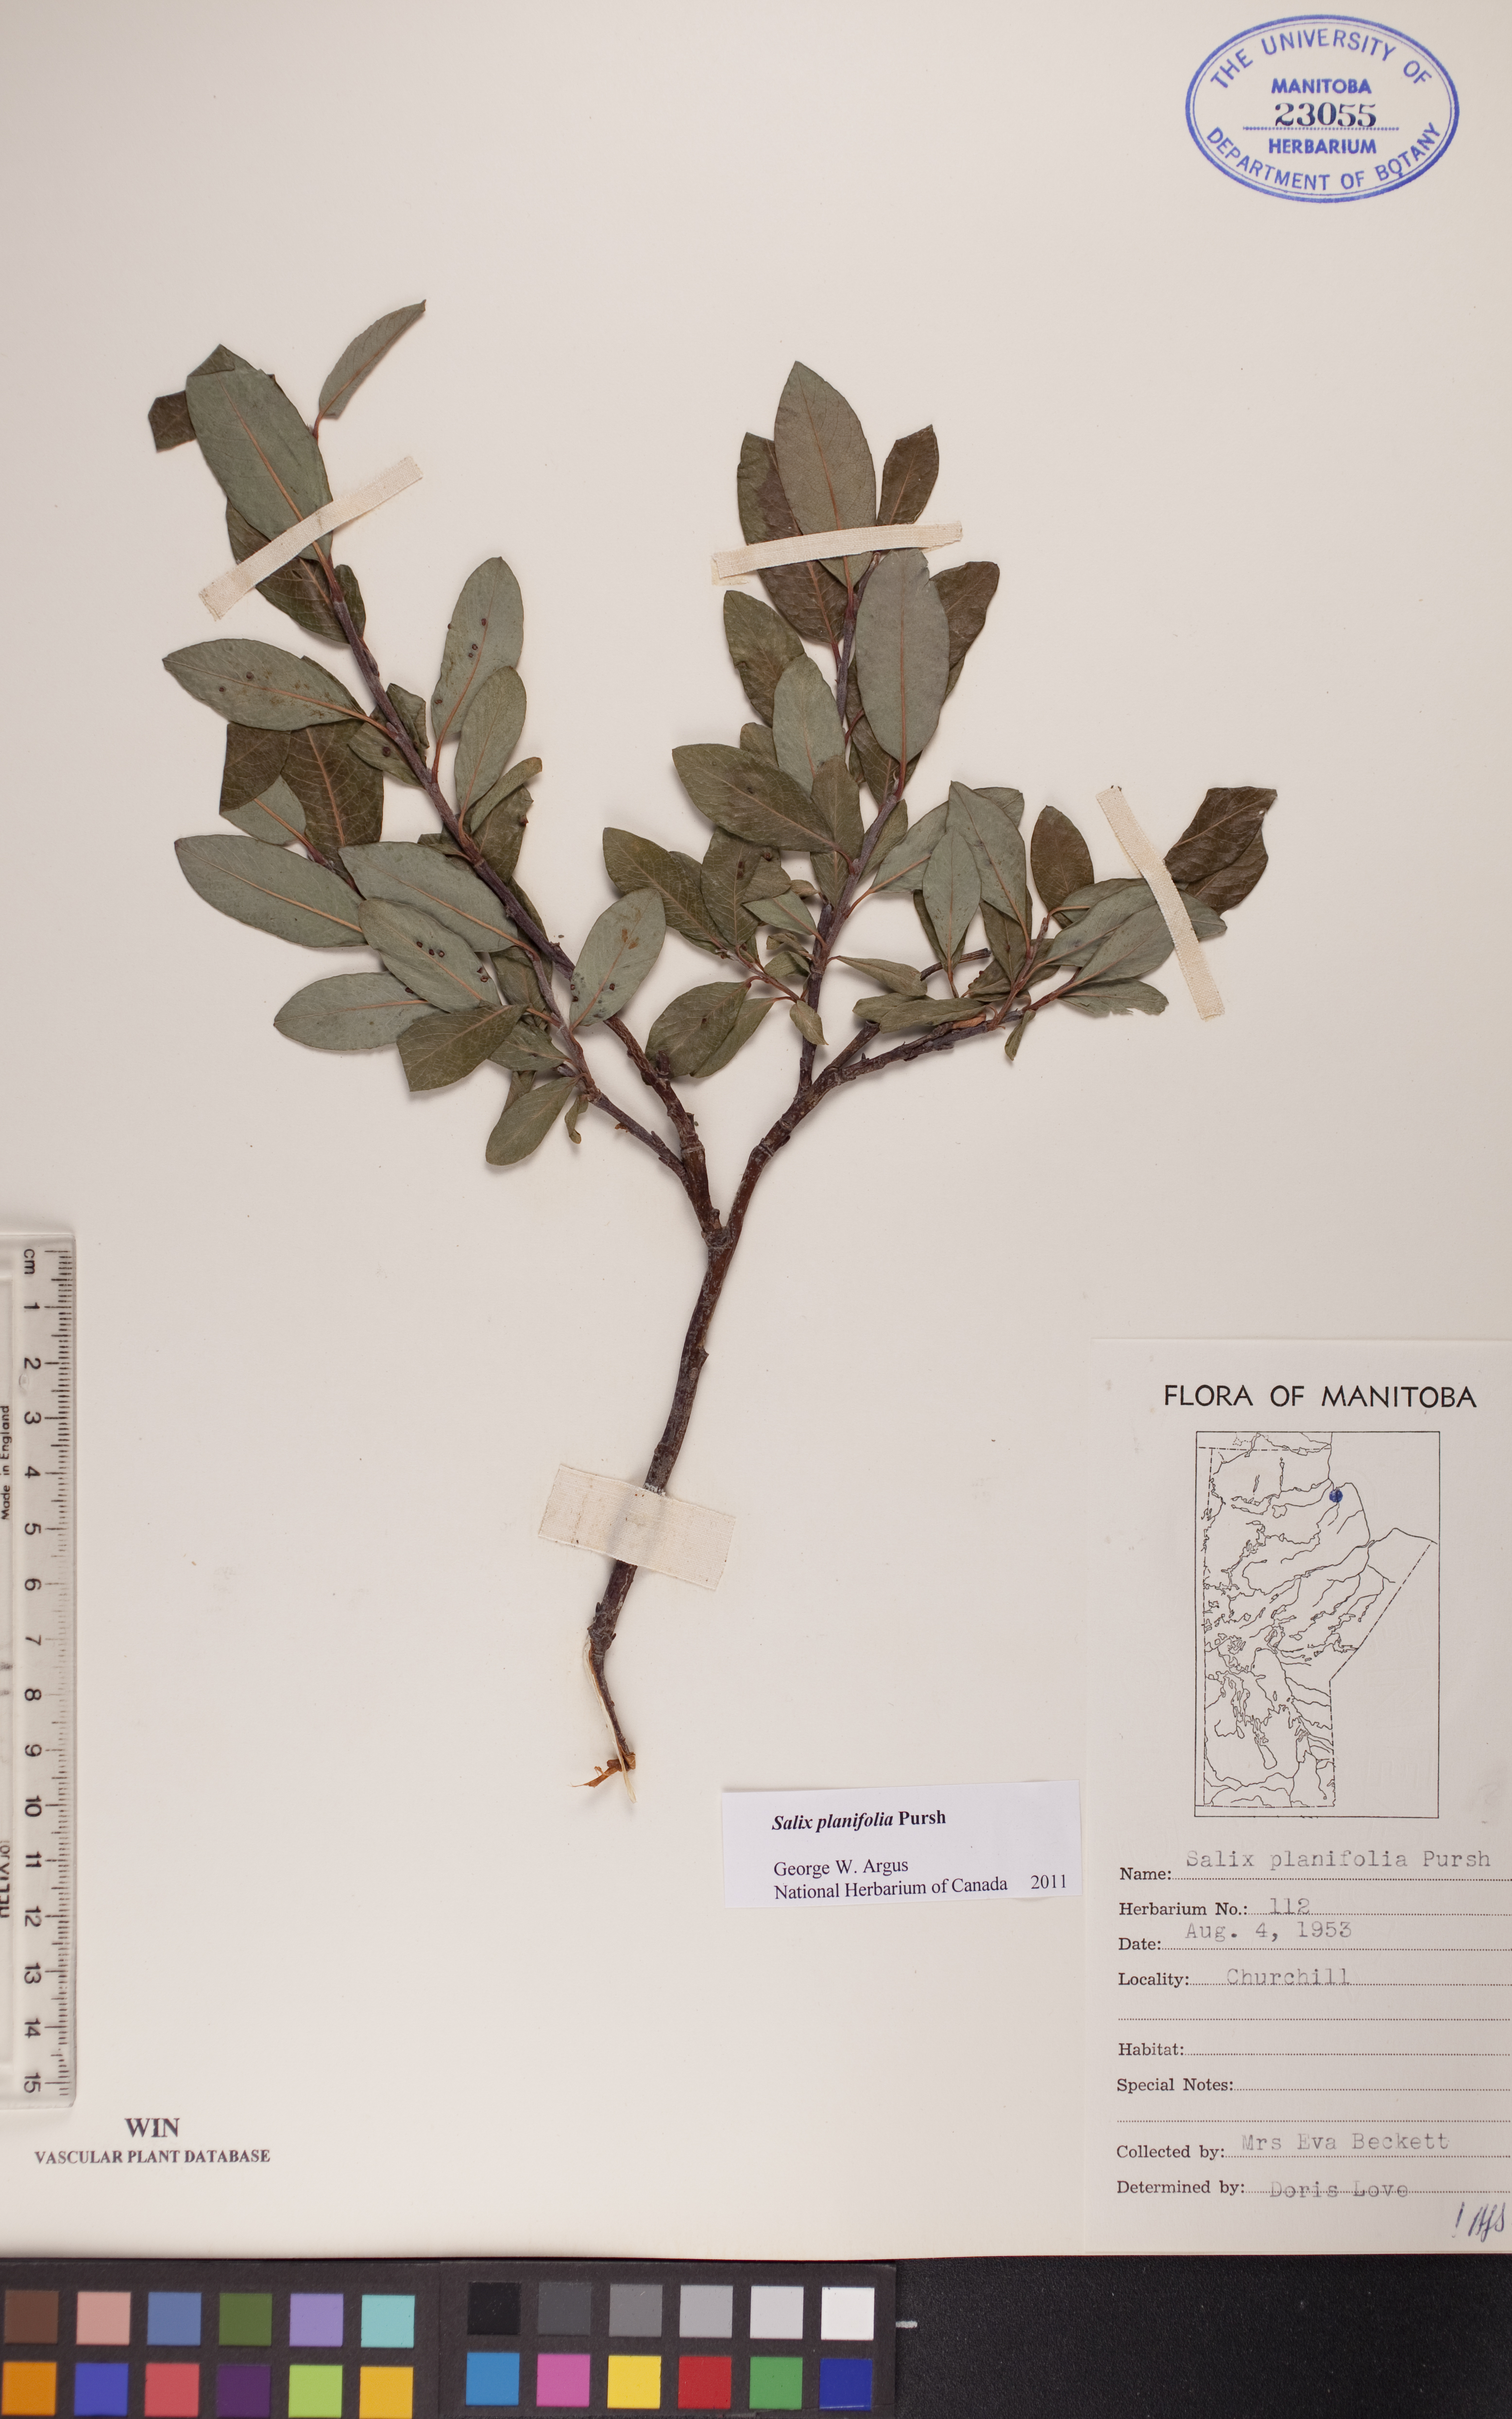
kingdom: Plantae
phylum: Tracheophyta
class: Magnoliopsida
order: Malpighiales
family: Salicaceae
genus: Salix
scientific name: Salix planifolia
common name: Mountain willow
